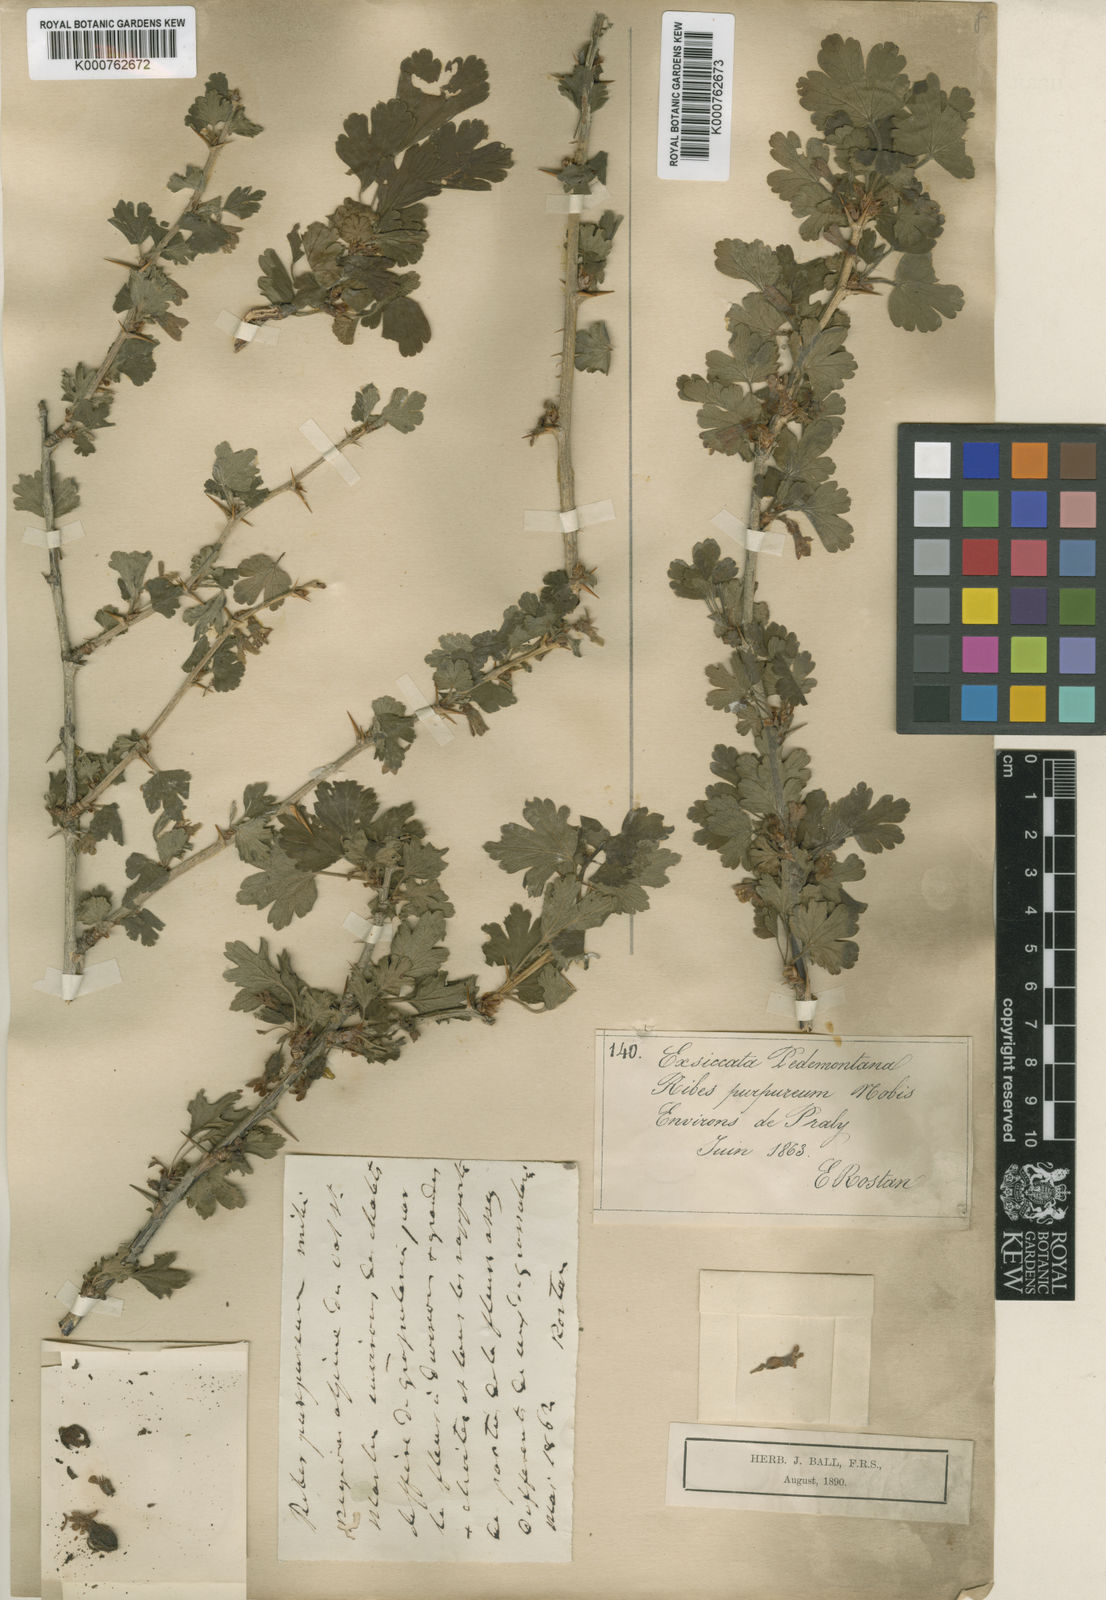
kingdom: Plantae
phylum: Tracheophyta
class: Magnoliopsida
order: Saxifragales
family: Grossulariaceae
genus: Ribes
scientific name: Ribes uva-crispa
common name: Gooseberry
